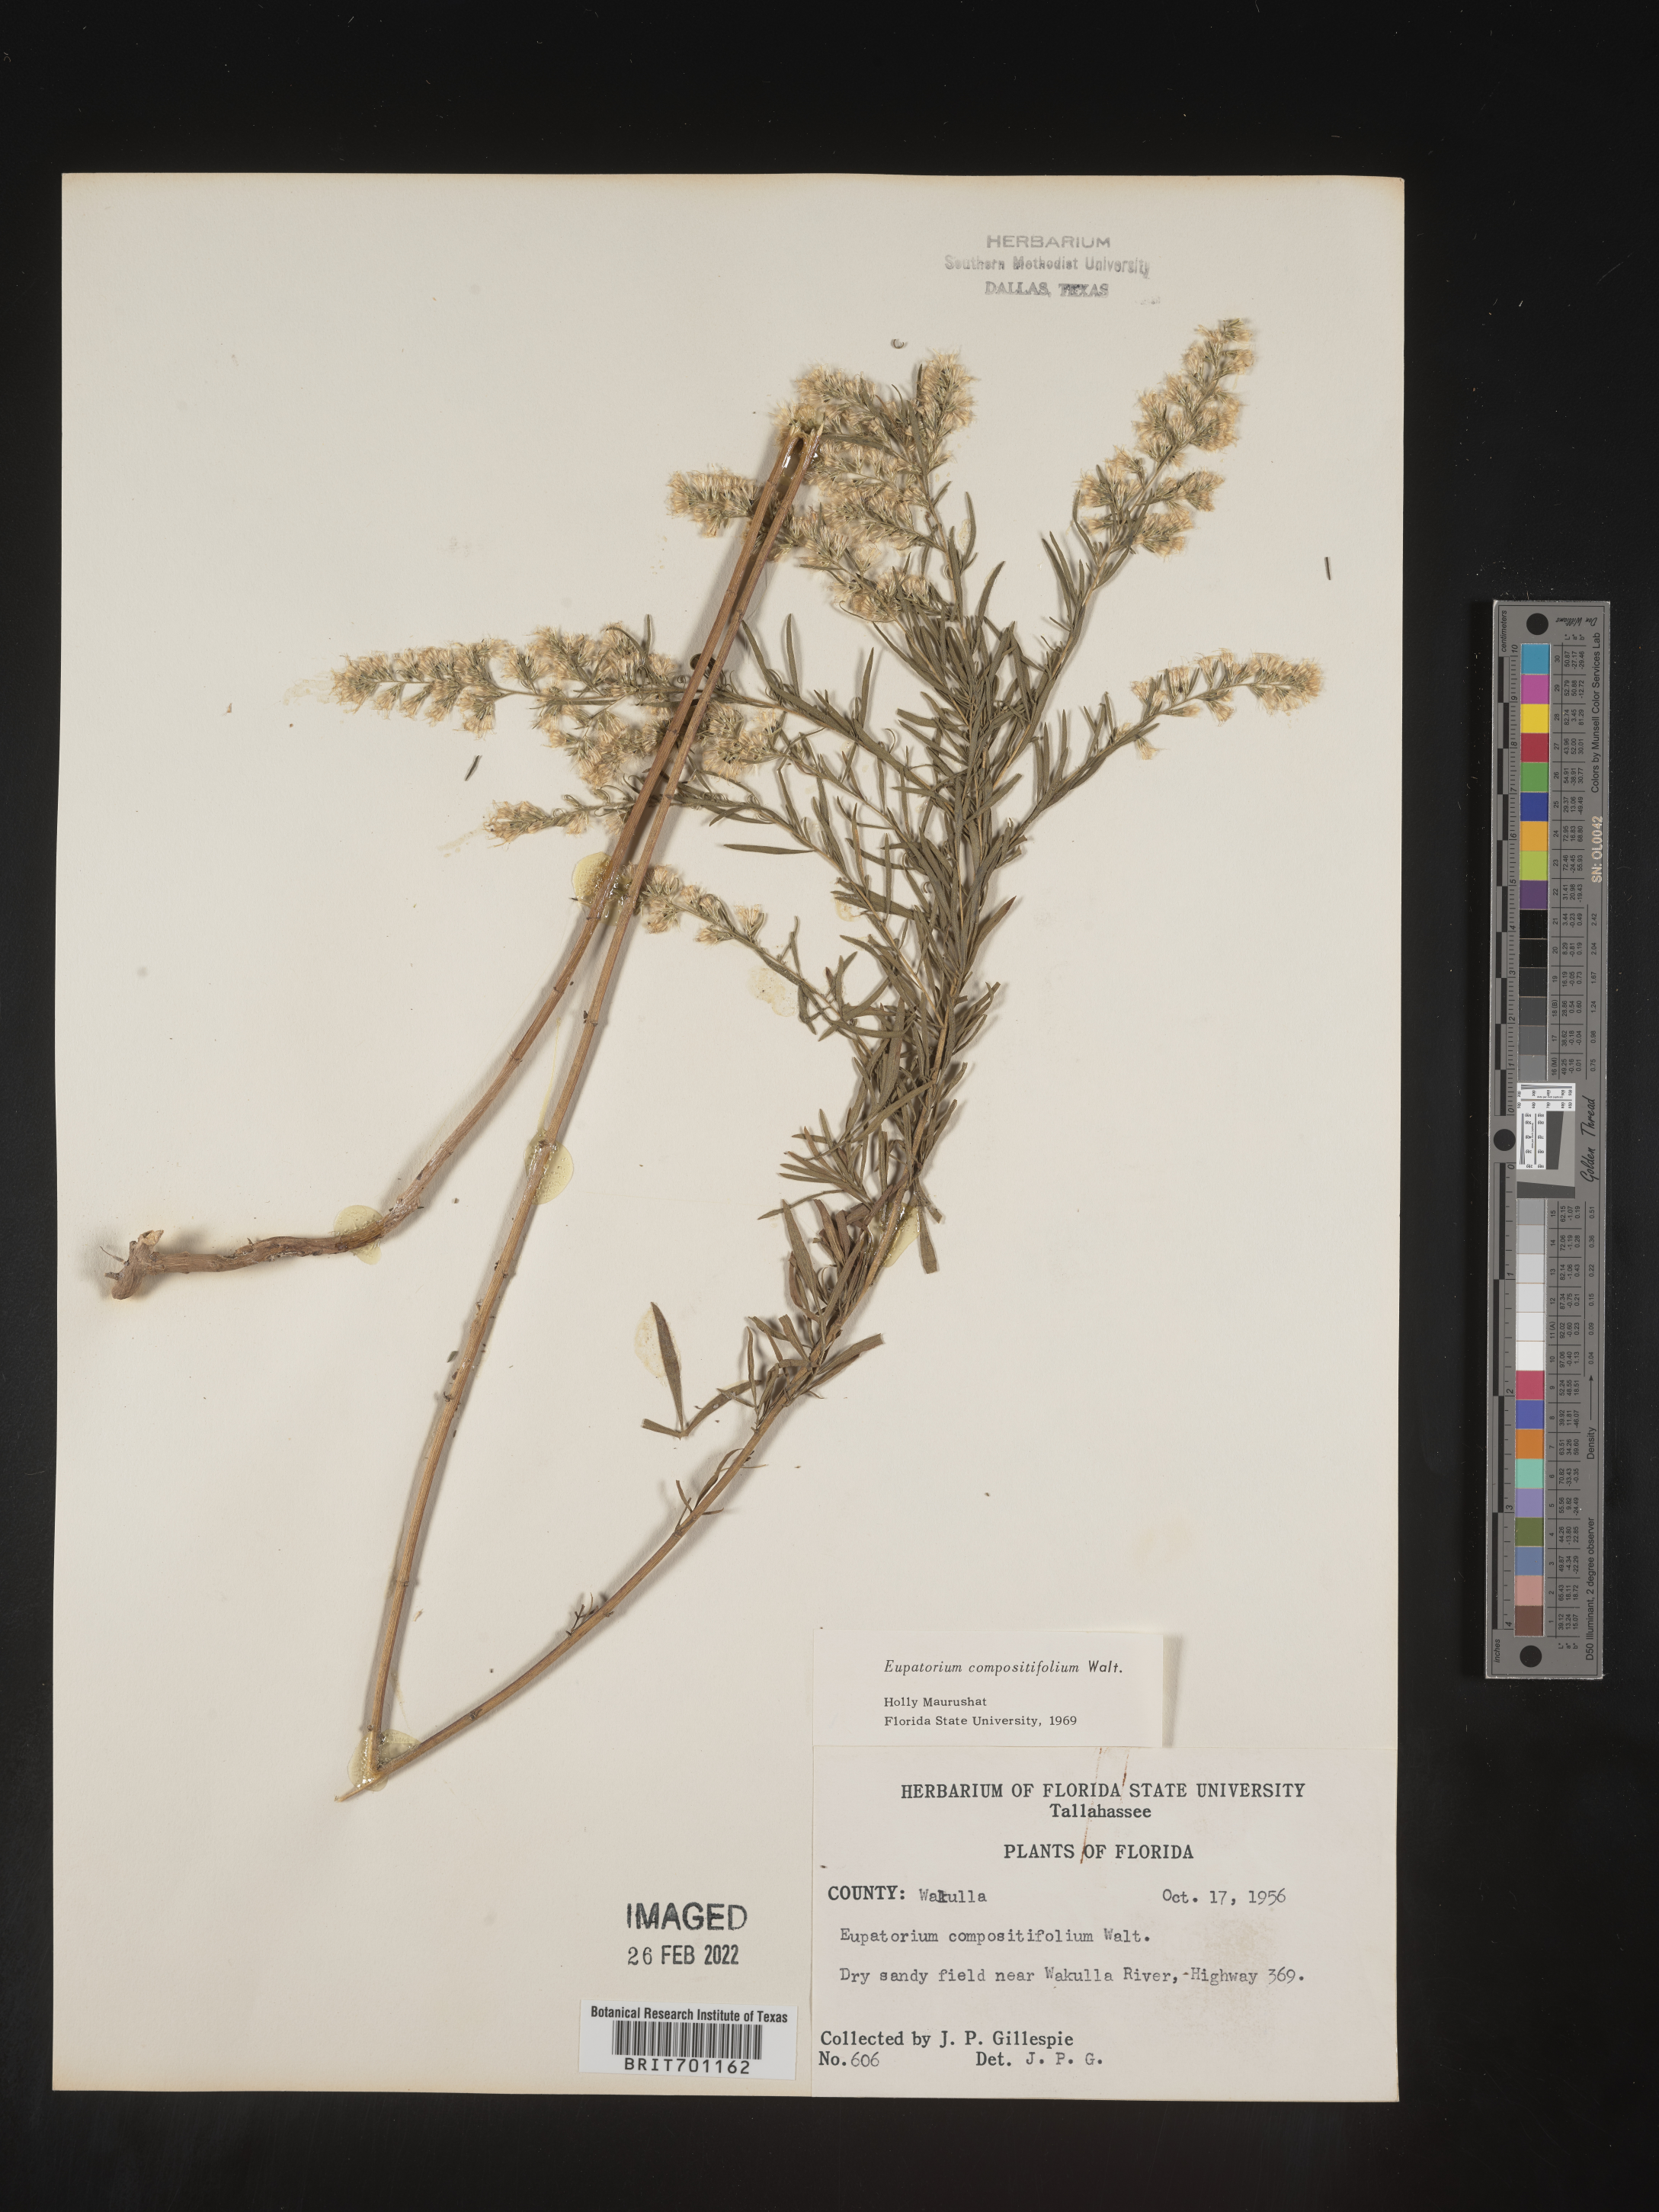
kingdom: Plantae
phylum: Tracheophyta
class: Magnoliopsida
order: Asterales
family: Asteraceae
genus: Eupatorium
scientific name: Eupatorium compositifolium
